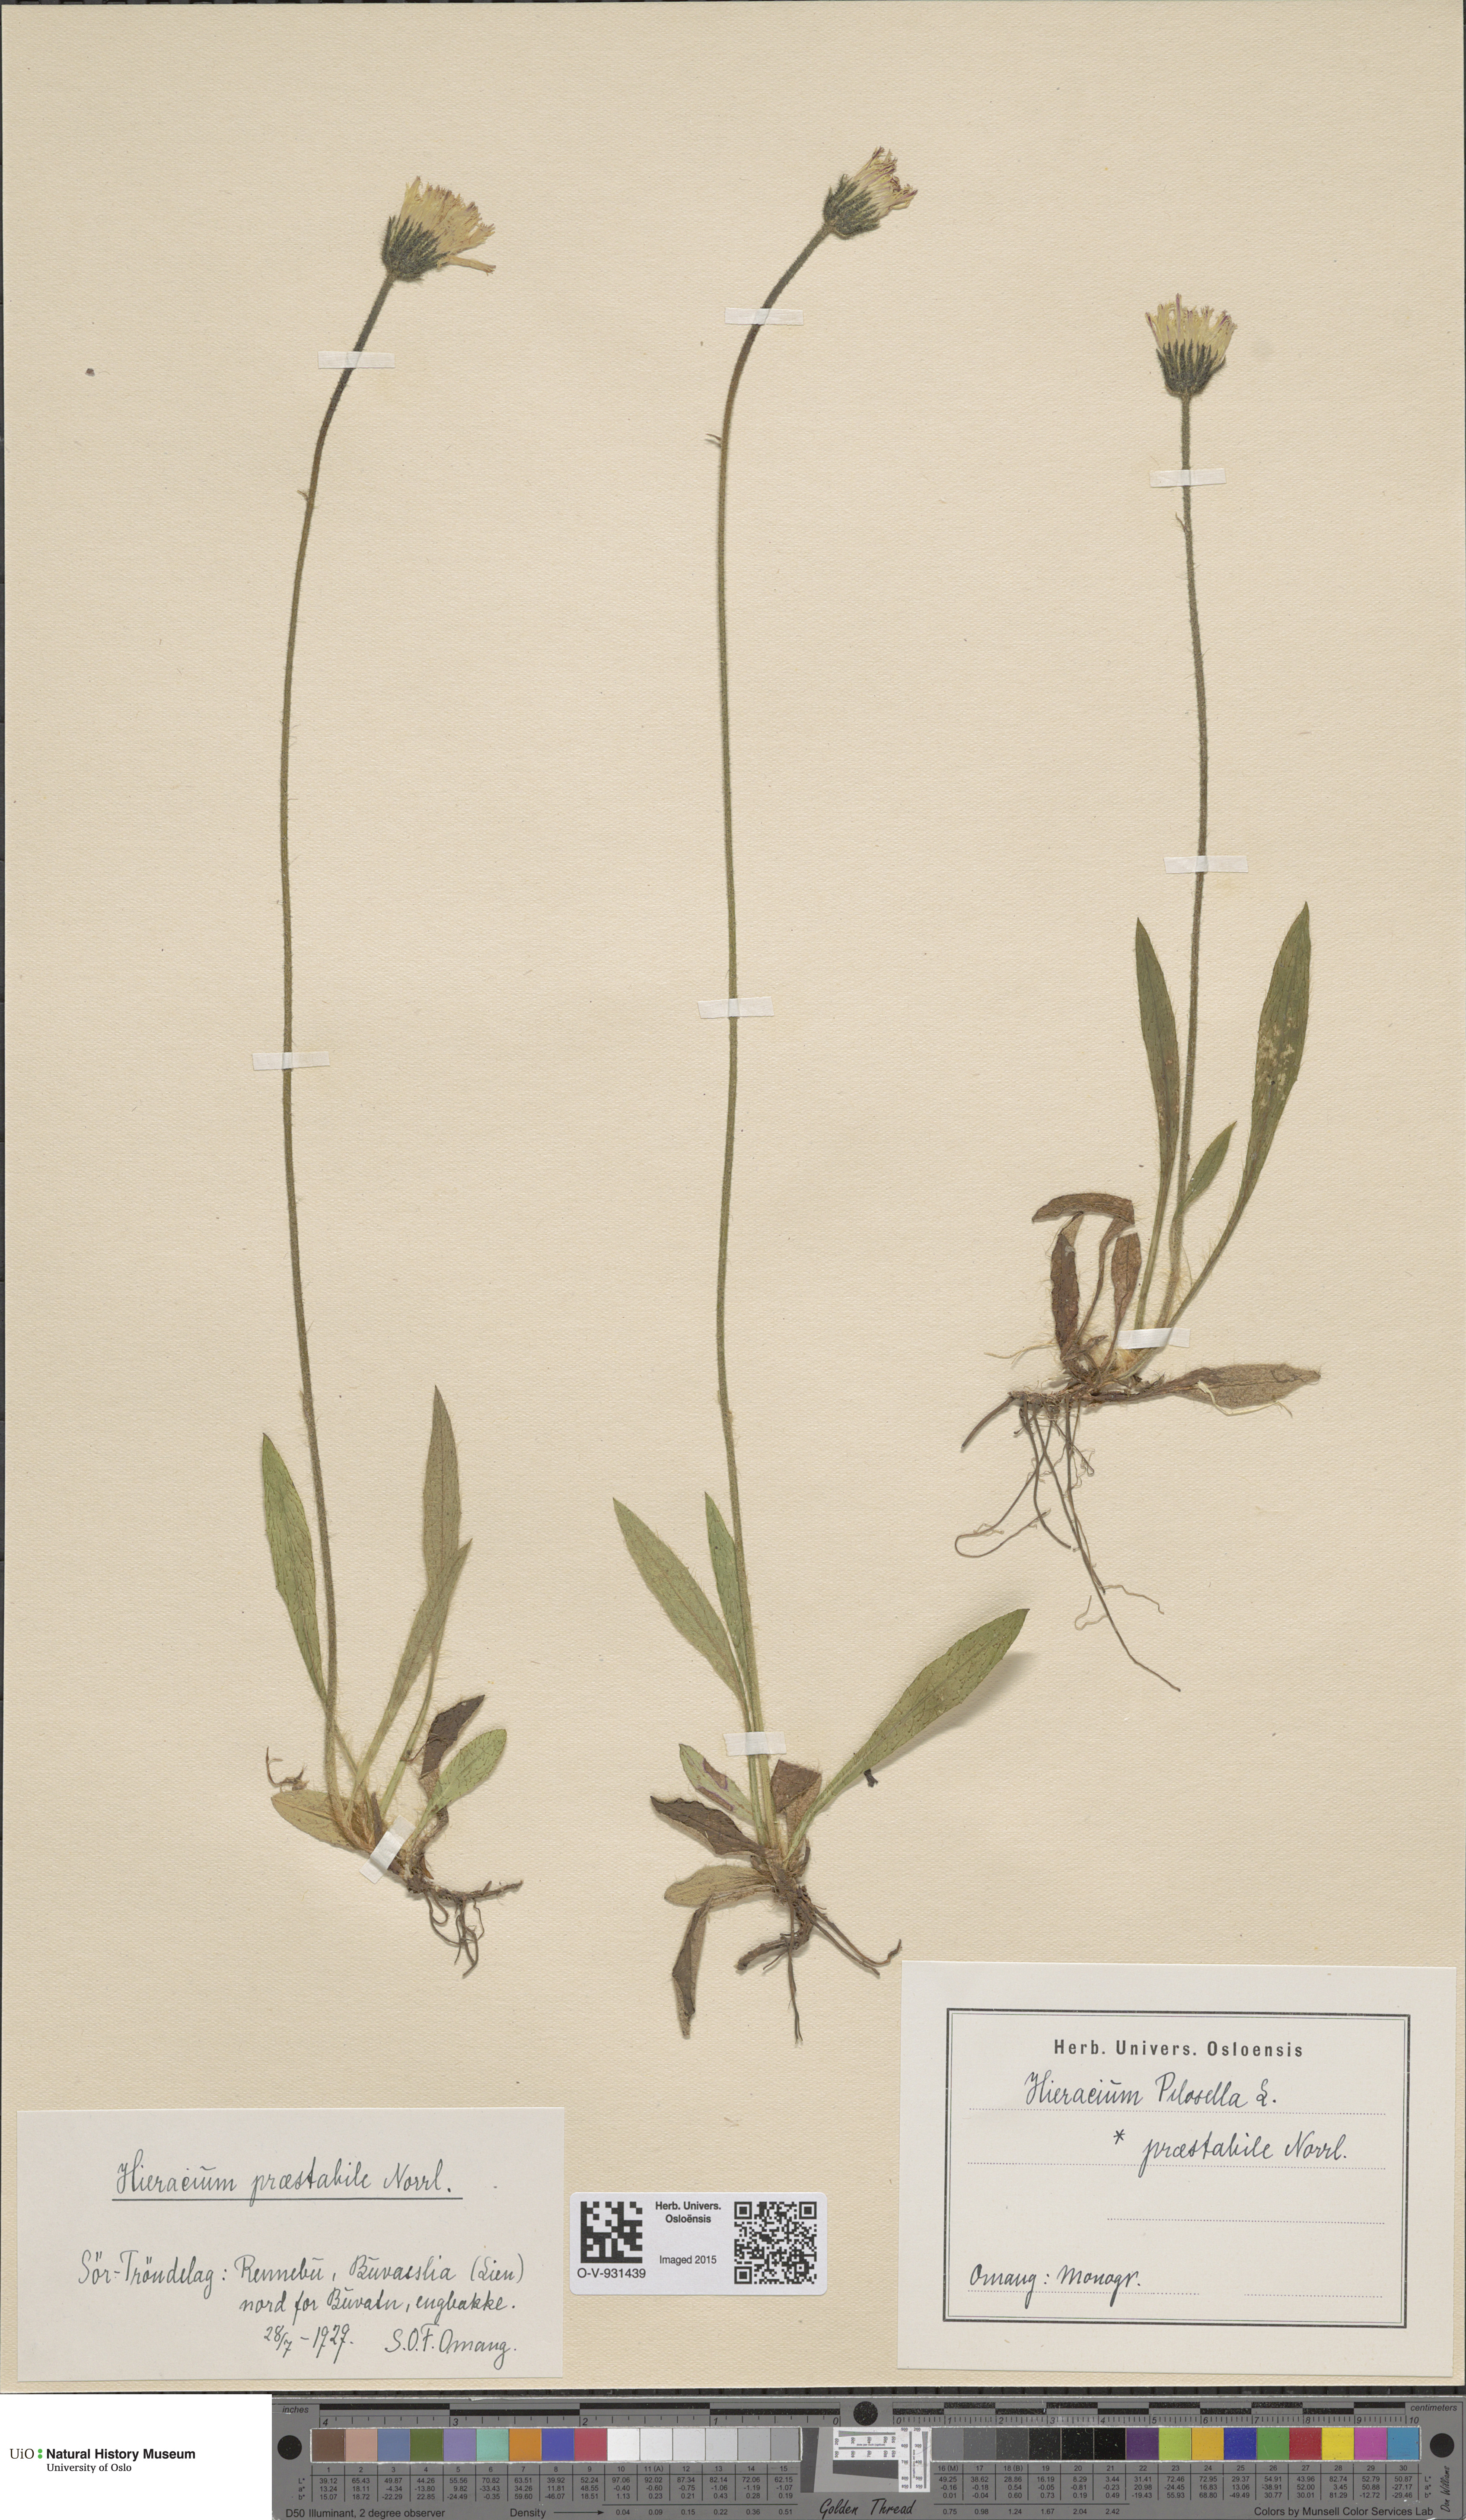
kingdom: Plantae
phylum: Tracheophyta
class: Magnoliopsida
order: Asterales
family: Asteraceae
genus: Pilosella
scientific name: Pilosella officinarum
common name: Mouse-ear hawkweed
